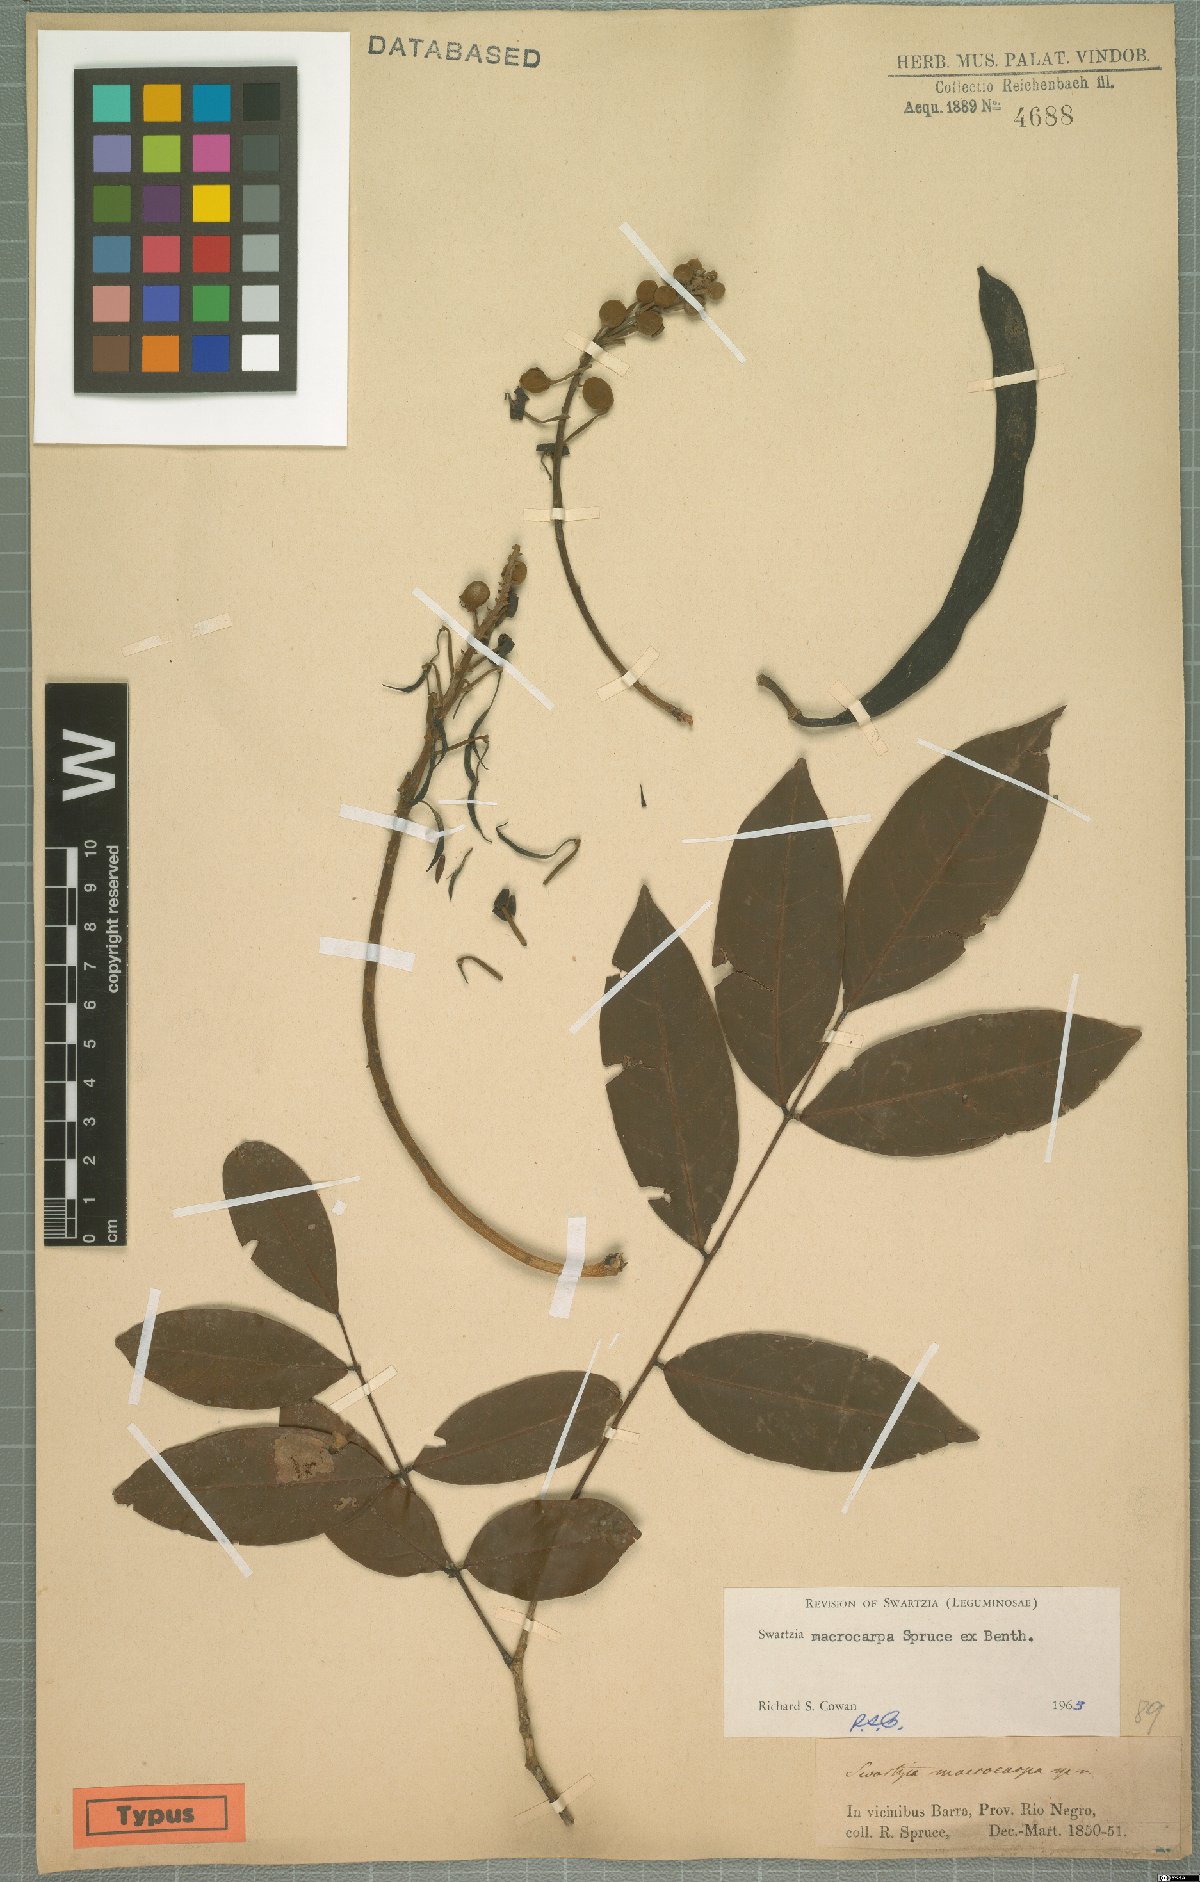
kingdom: Plantae
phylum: Tracheophyta
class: Magnoliopsida
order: Fabales
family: Fabaceae
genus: Swartzia
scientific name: Swartzia macrocarpa
